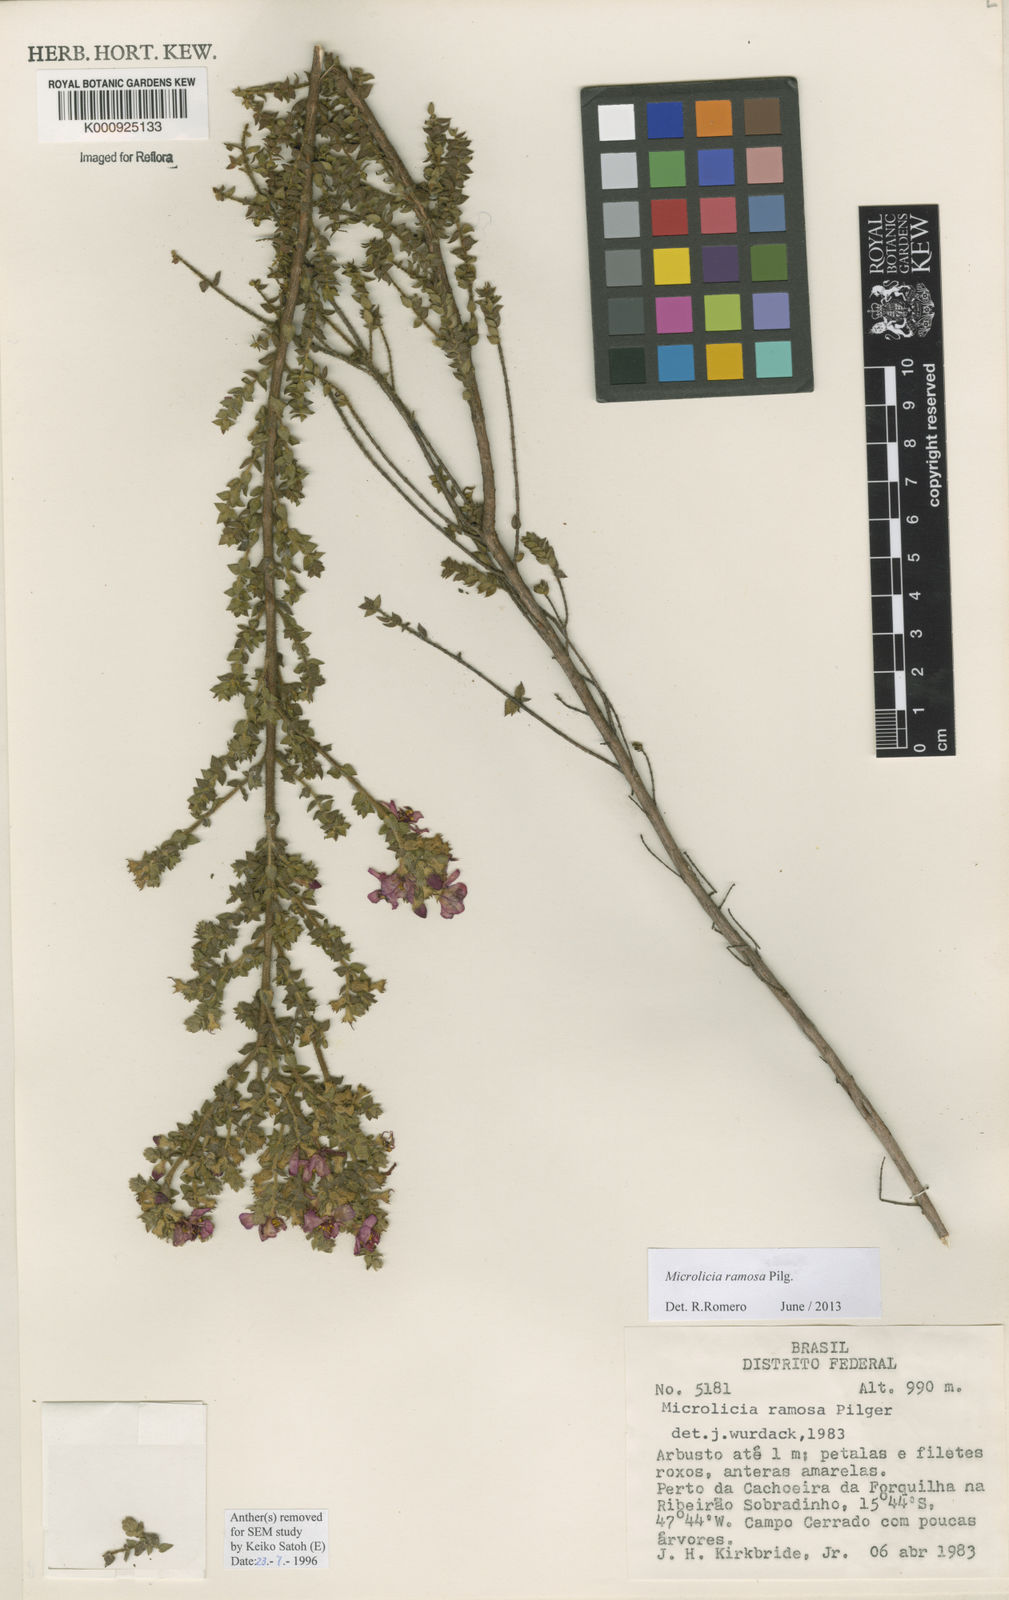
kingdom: Plantae
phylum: Tracheophyta
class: Magnoliopsida
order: Myrtales
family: Melastomataceae
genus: Microlicia
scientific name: Microlicia ramosa
